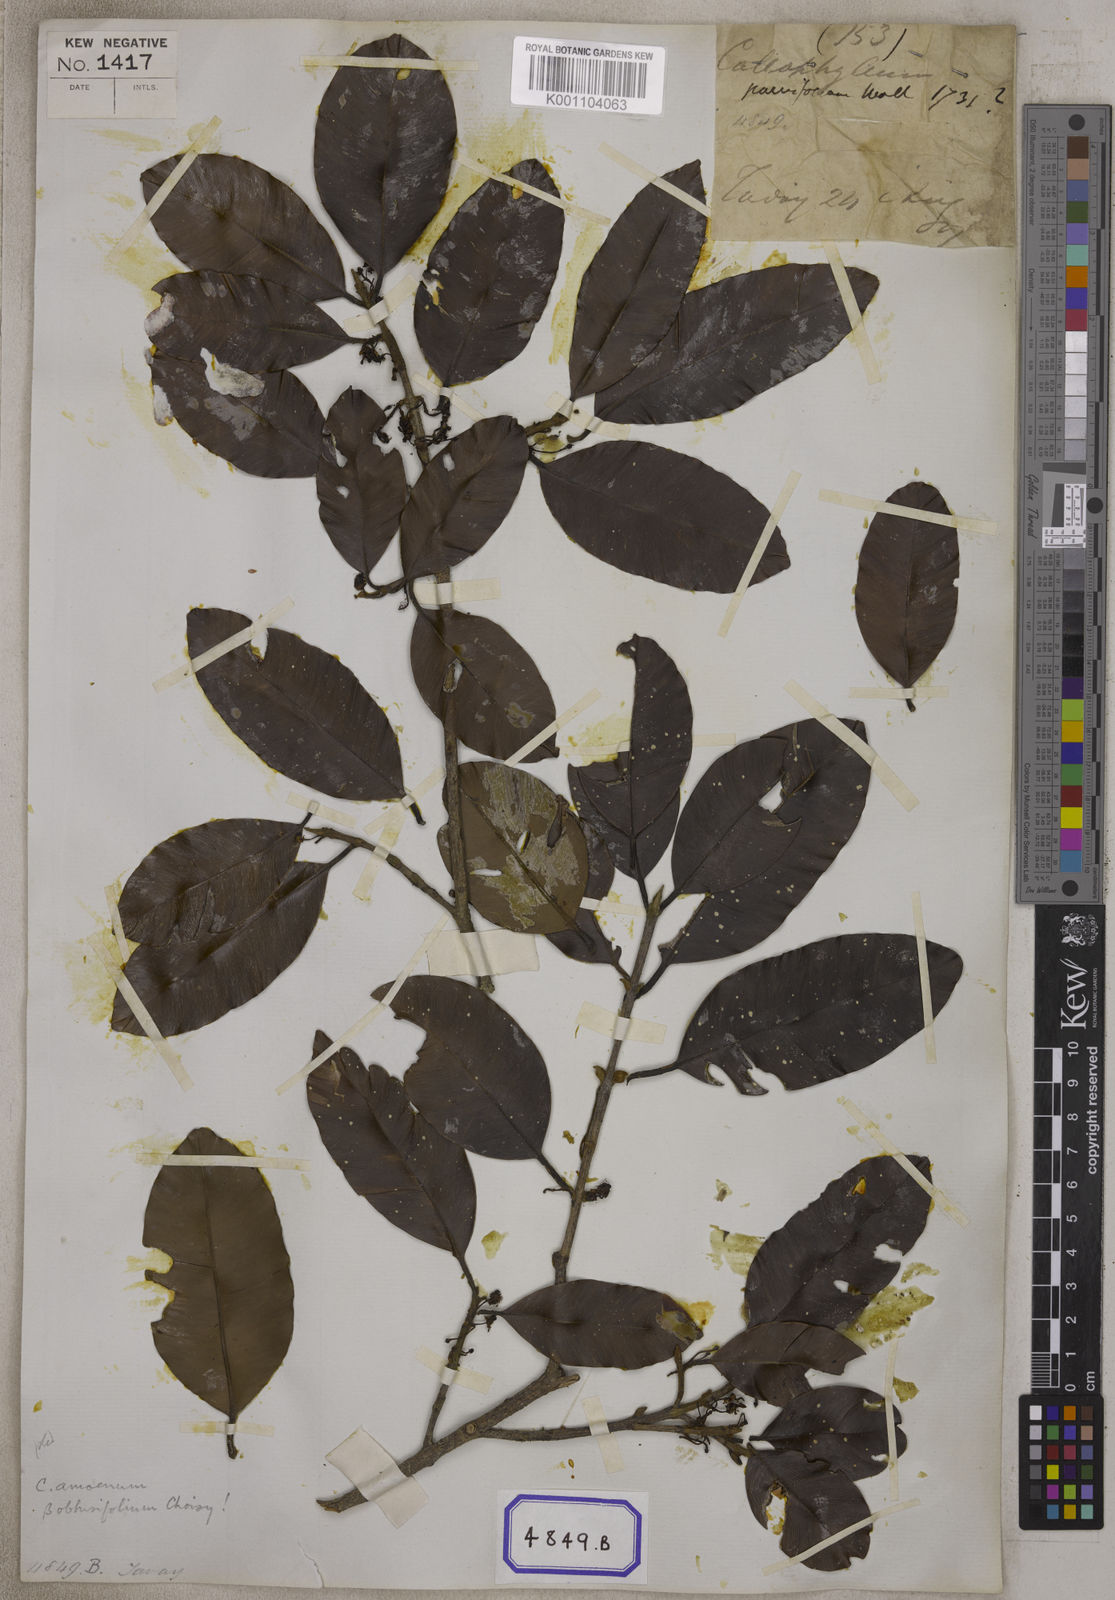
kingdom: Plantae
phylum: Tracheophyta
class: Magnoliopsida
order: Malpighiales
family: Calophyllaceae
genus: Calophyllum
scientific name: Calophyllum
